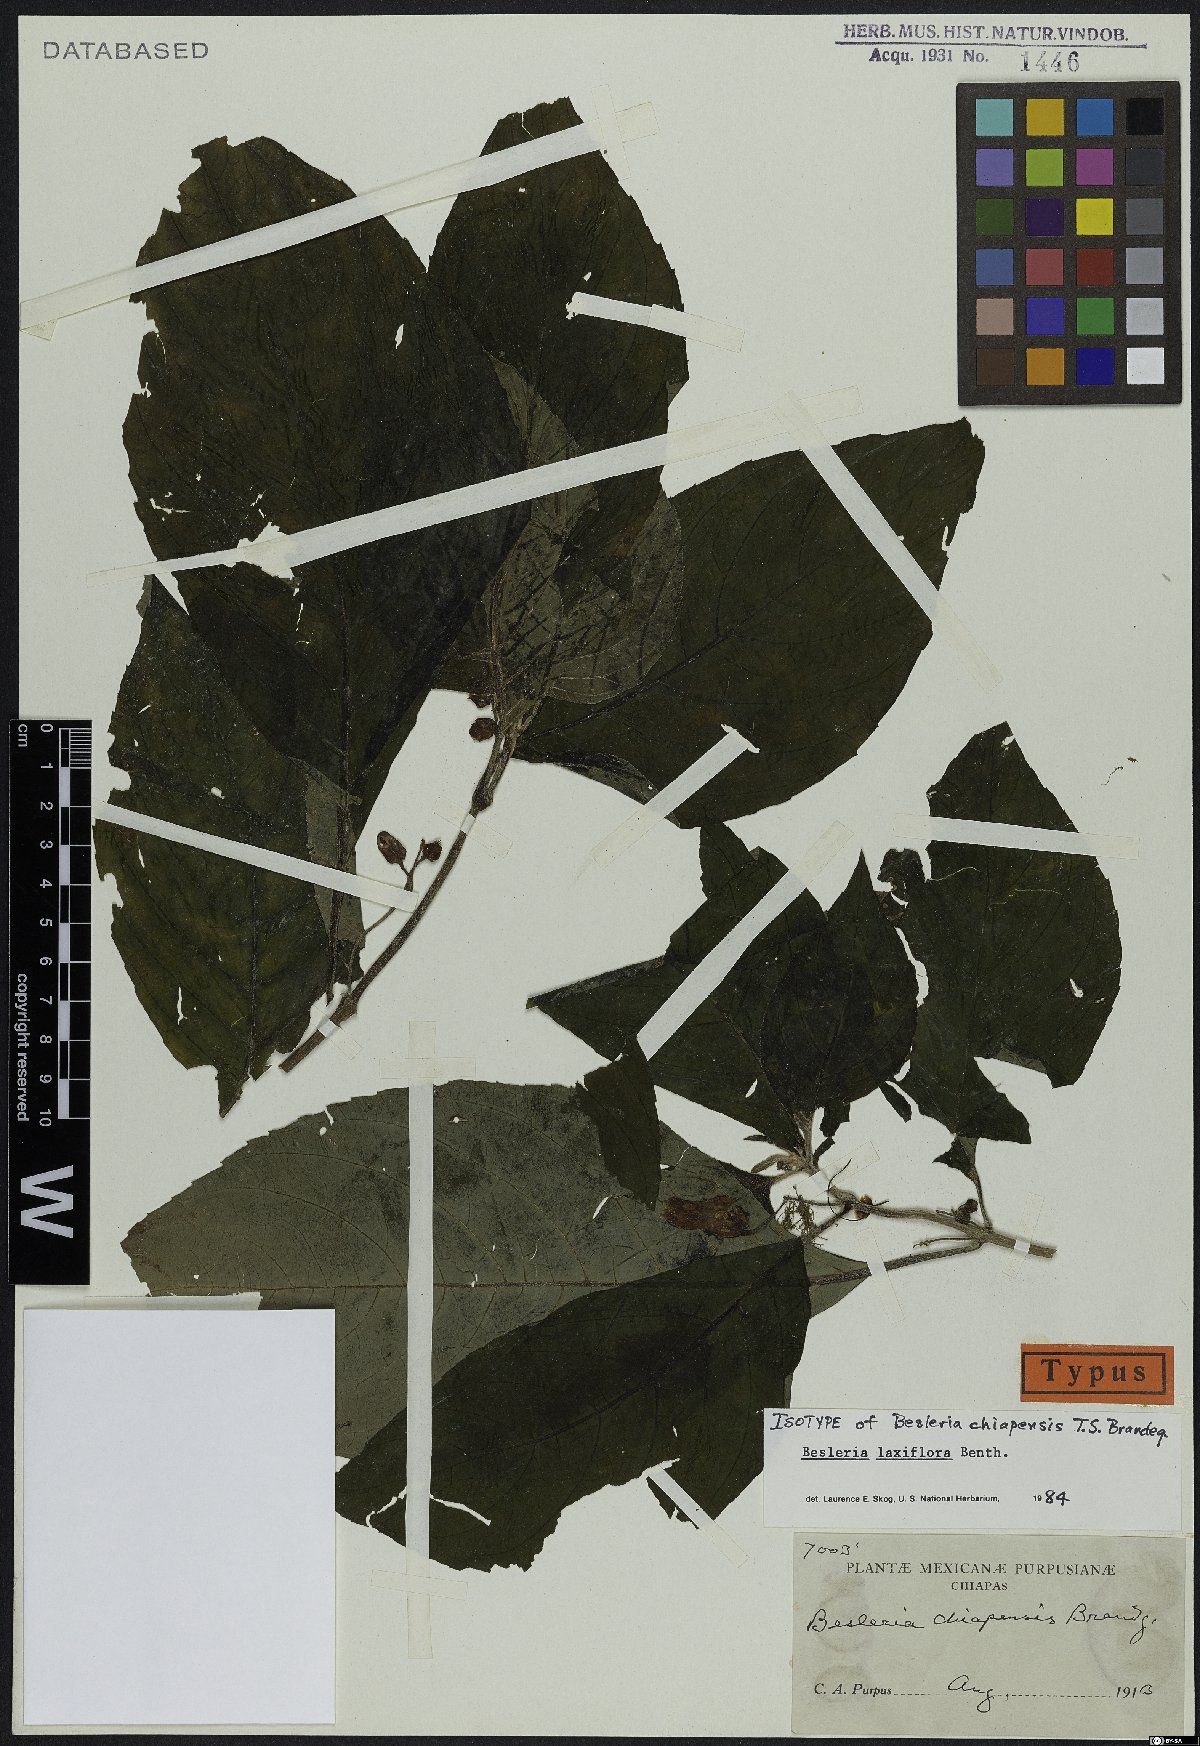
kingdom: Plantae
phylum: Tracheophyta
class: Magnoliopsida
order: Lamiales
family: Gesneriaceae
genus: Besleria
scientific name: Besleria laxiflora
